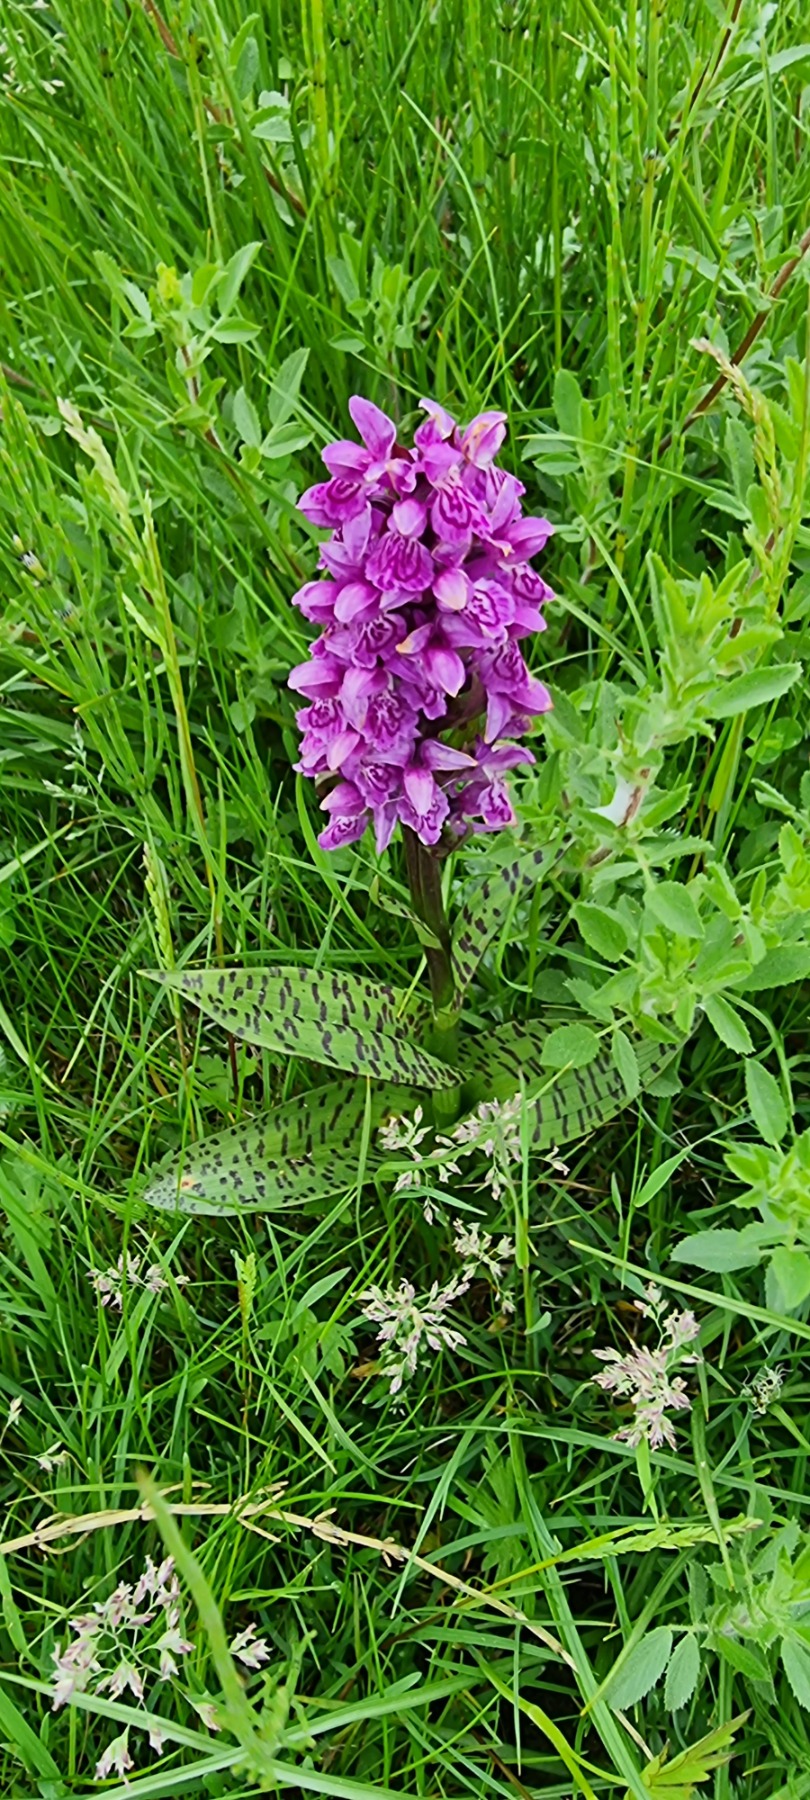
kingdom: Plantae
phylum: Tracheophyta
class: Liliopsida
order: Asparagales
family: Orchidaceae
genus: Dactylorhiza
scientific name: Dactylorhiza majalis
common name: Maj-gøgeurt
